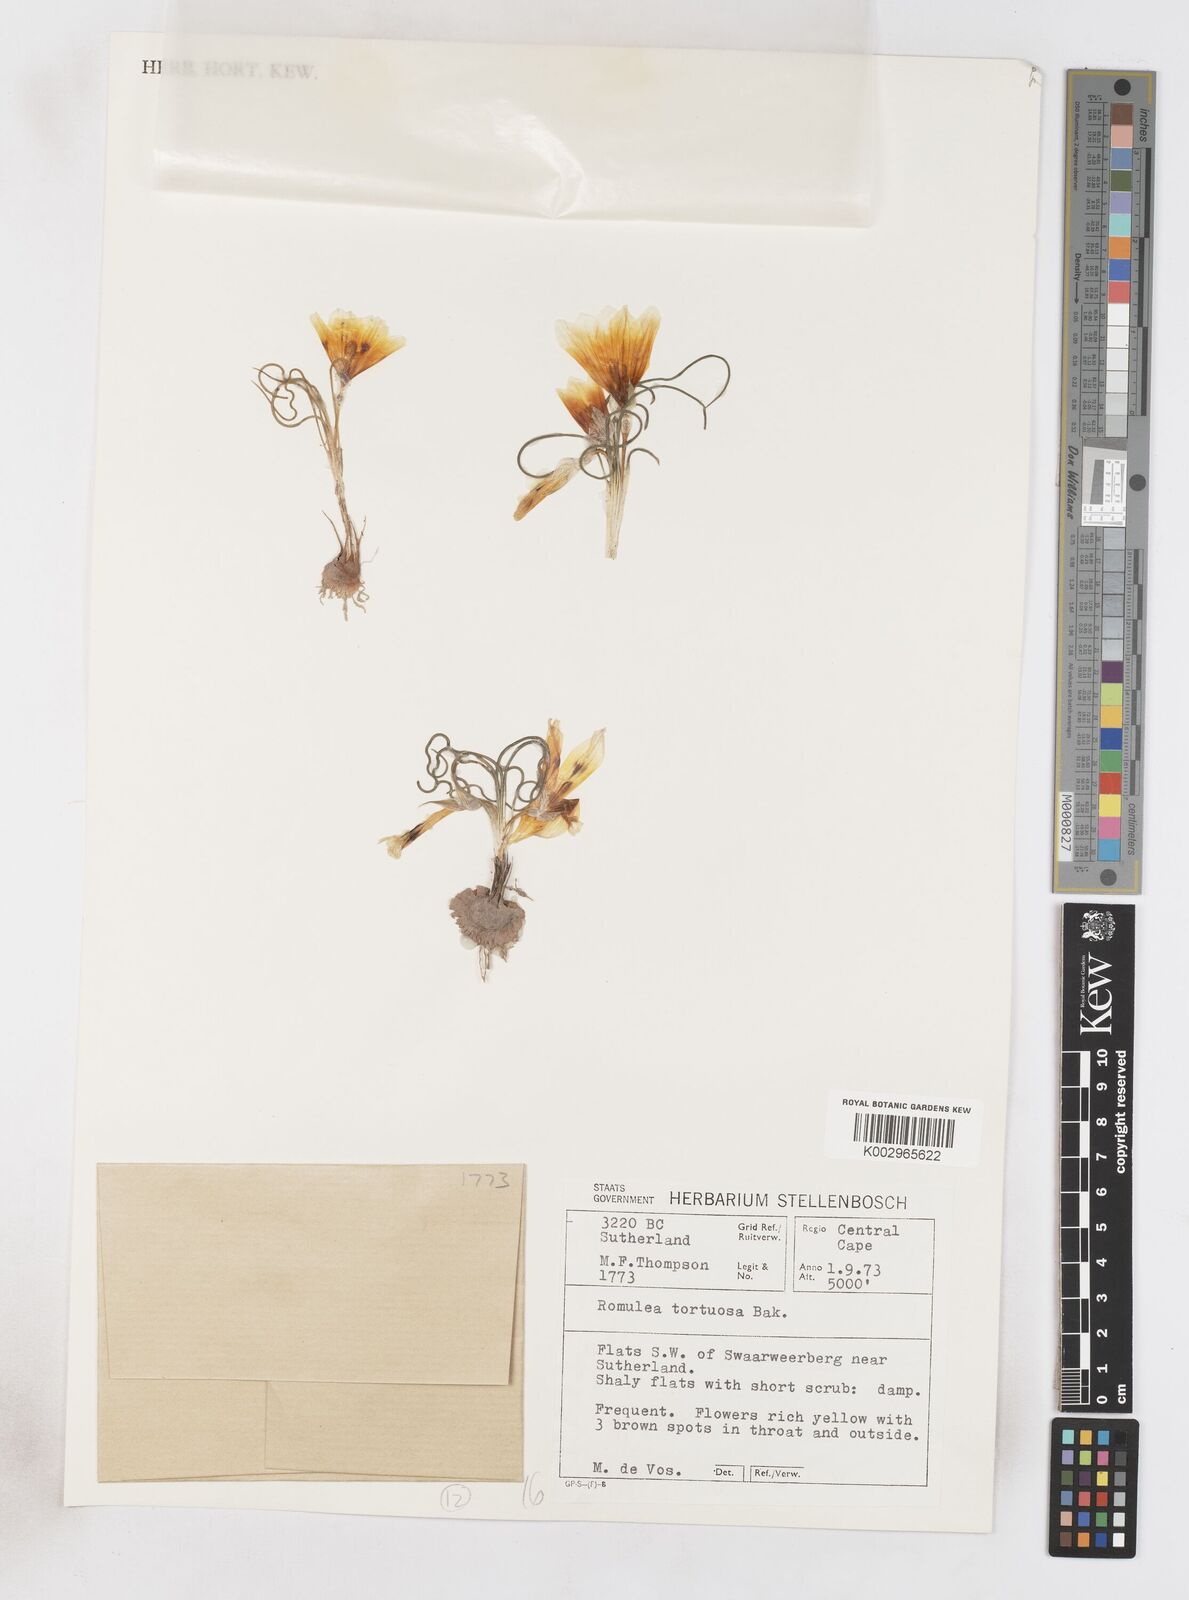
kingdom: Plantae
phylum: Tracheophyta
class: Liliopsida
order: Asparagales
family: Iridaceae
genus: Romulea
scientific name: Romulea tortuosa
